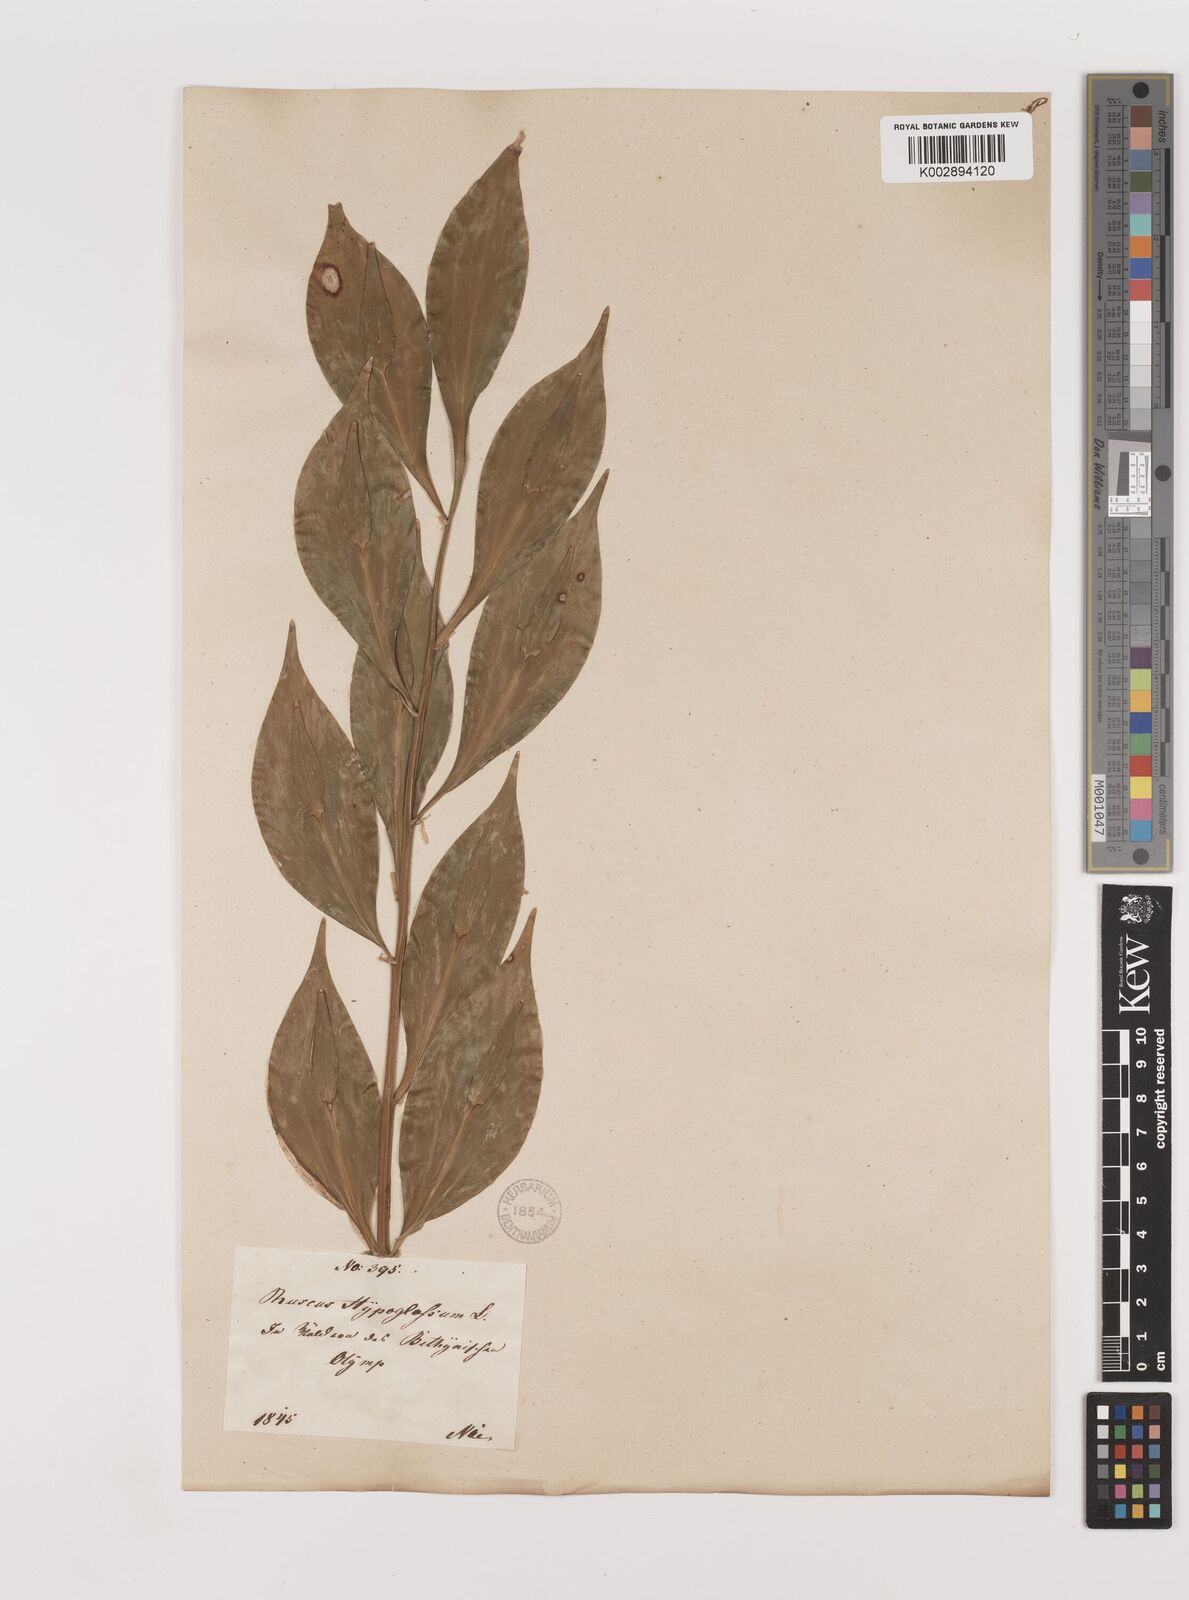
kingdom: Plantae
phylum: Tracheophyta
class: Liliopsida
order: Asparagales
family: Asparagaceae
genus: Ruscus
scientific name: Ruscus hypoglossum
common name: Spineless butcher's-broom
